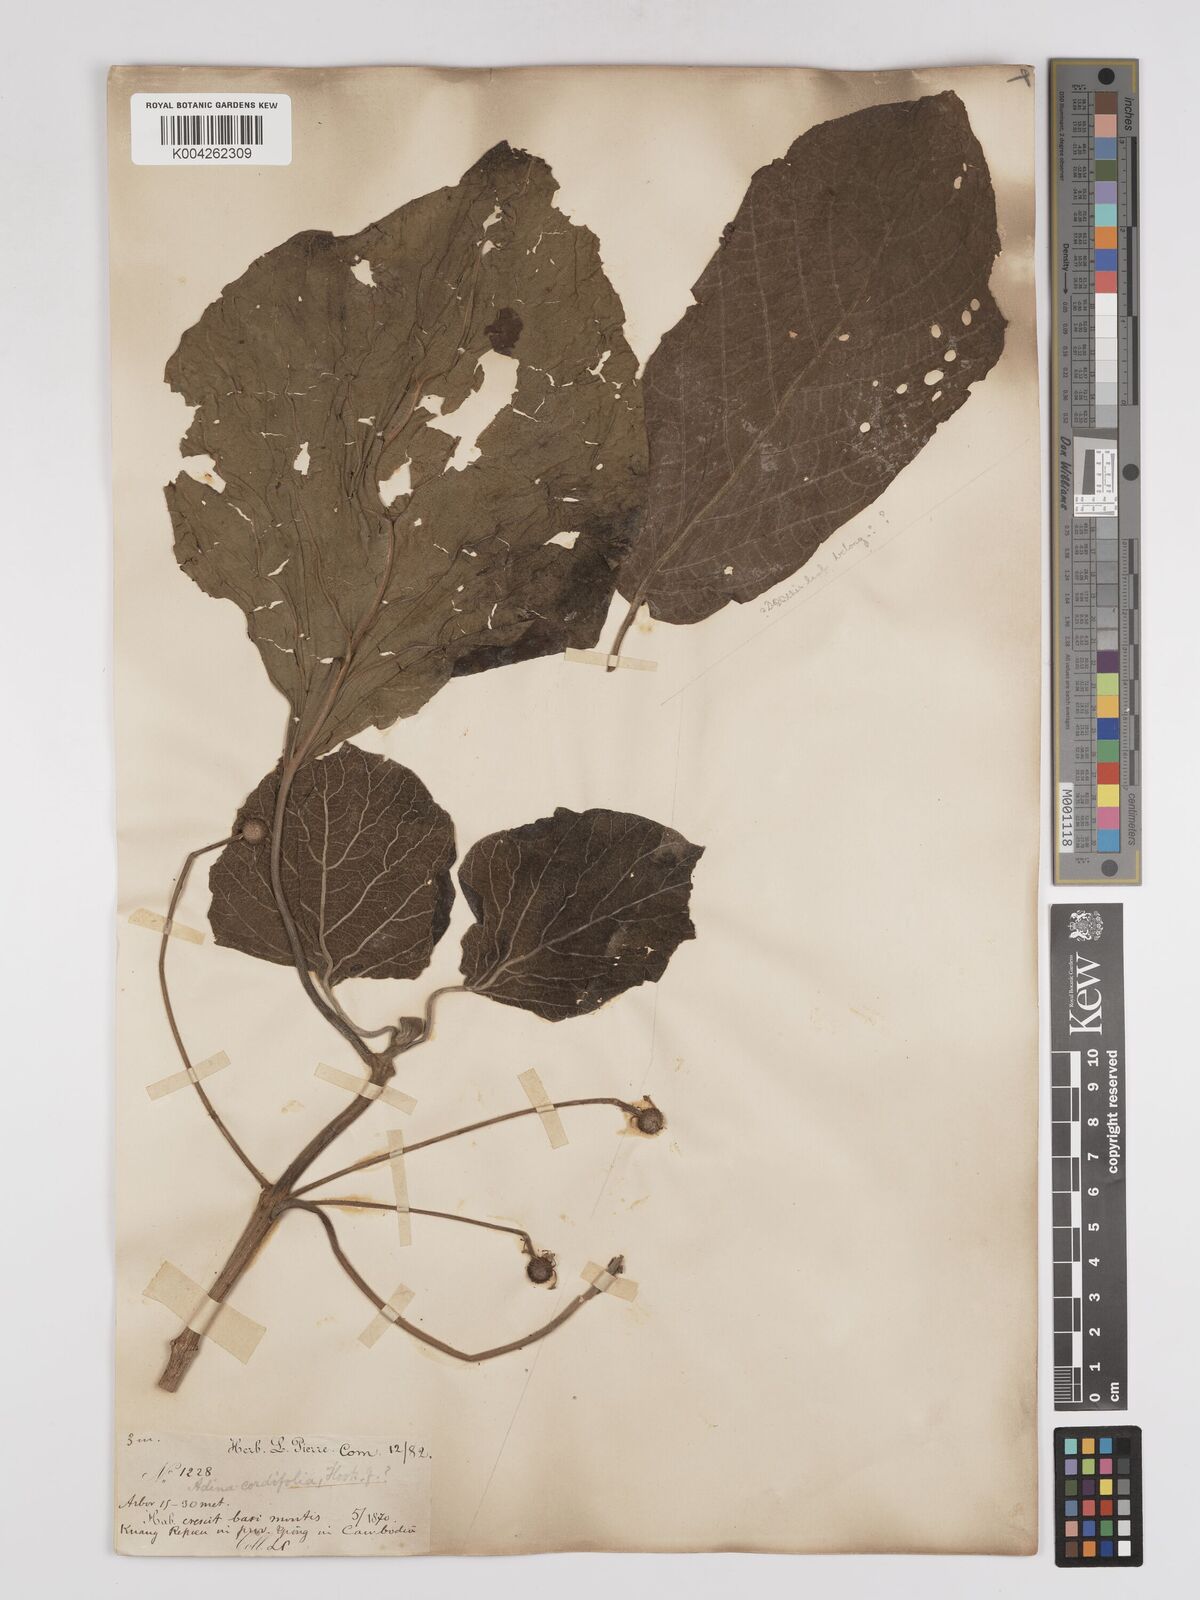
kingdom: Plantae
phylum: Tracheophyta
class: Magnoliopsida
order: Gentianales
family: Rubiaceae
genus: Adina
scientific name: Adina cordifolia
